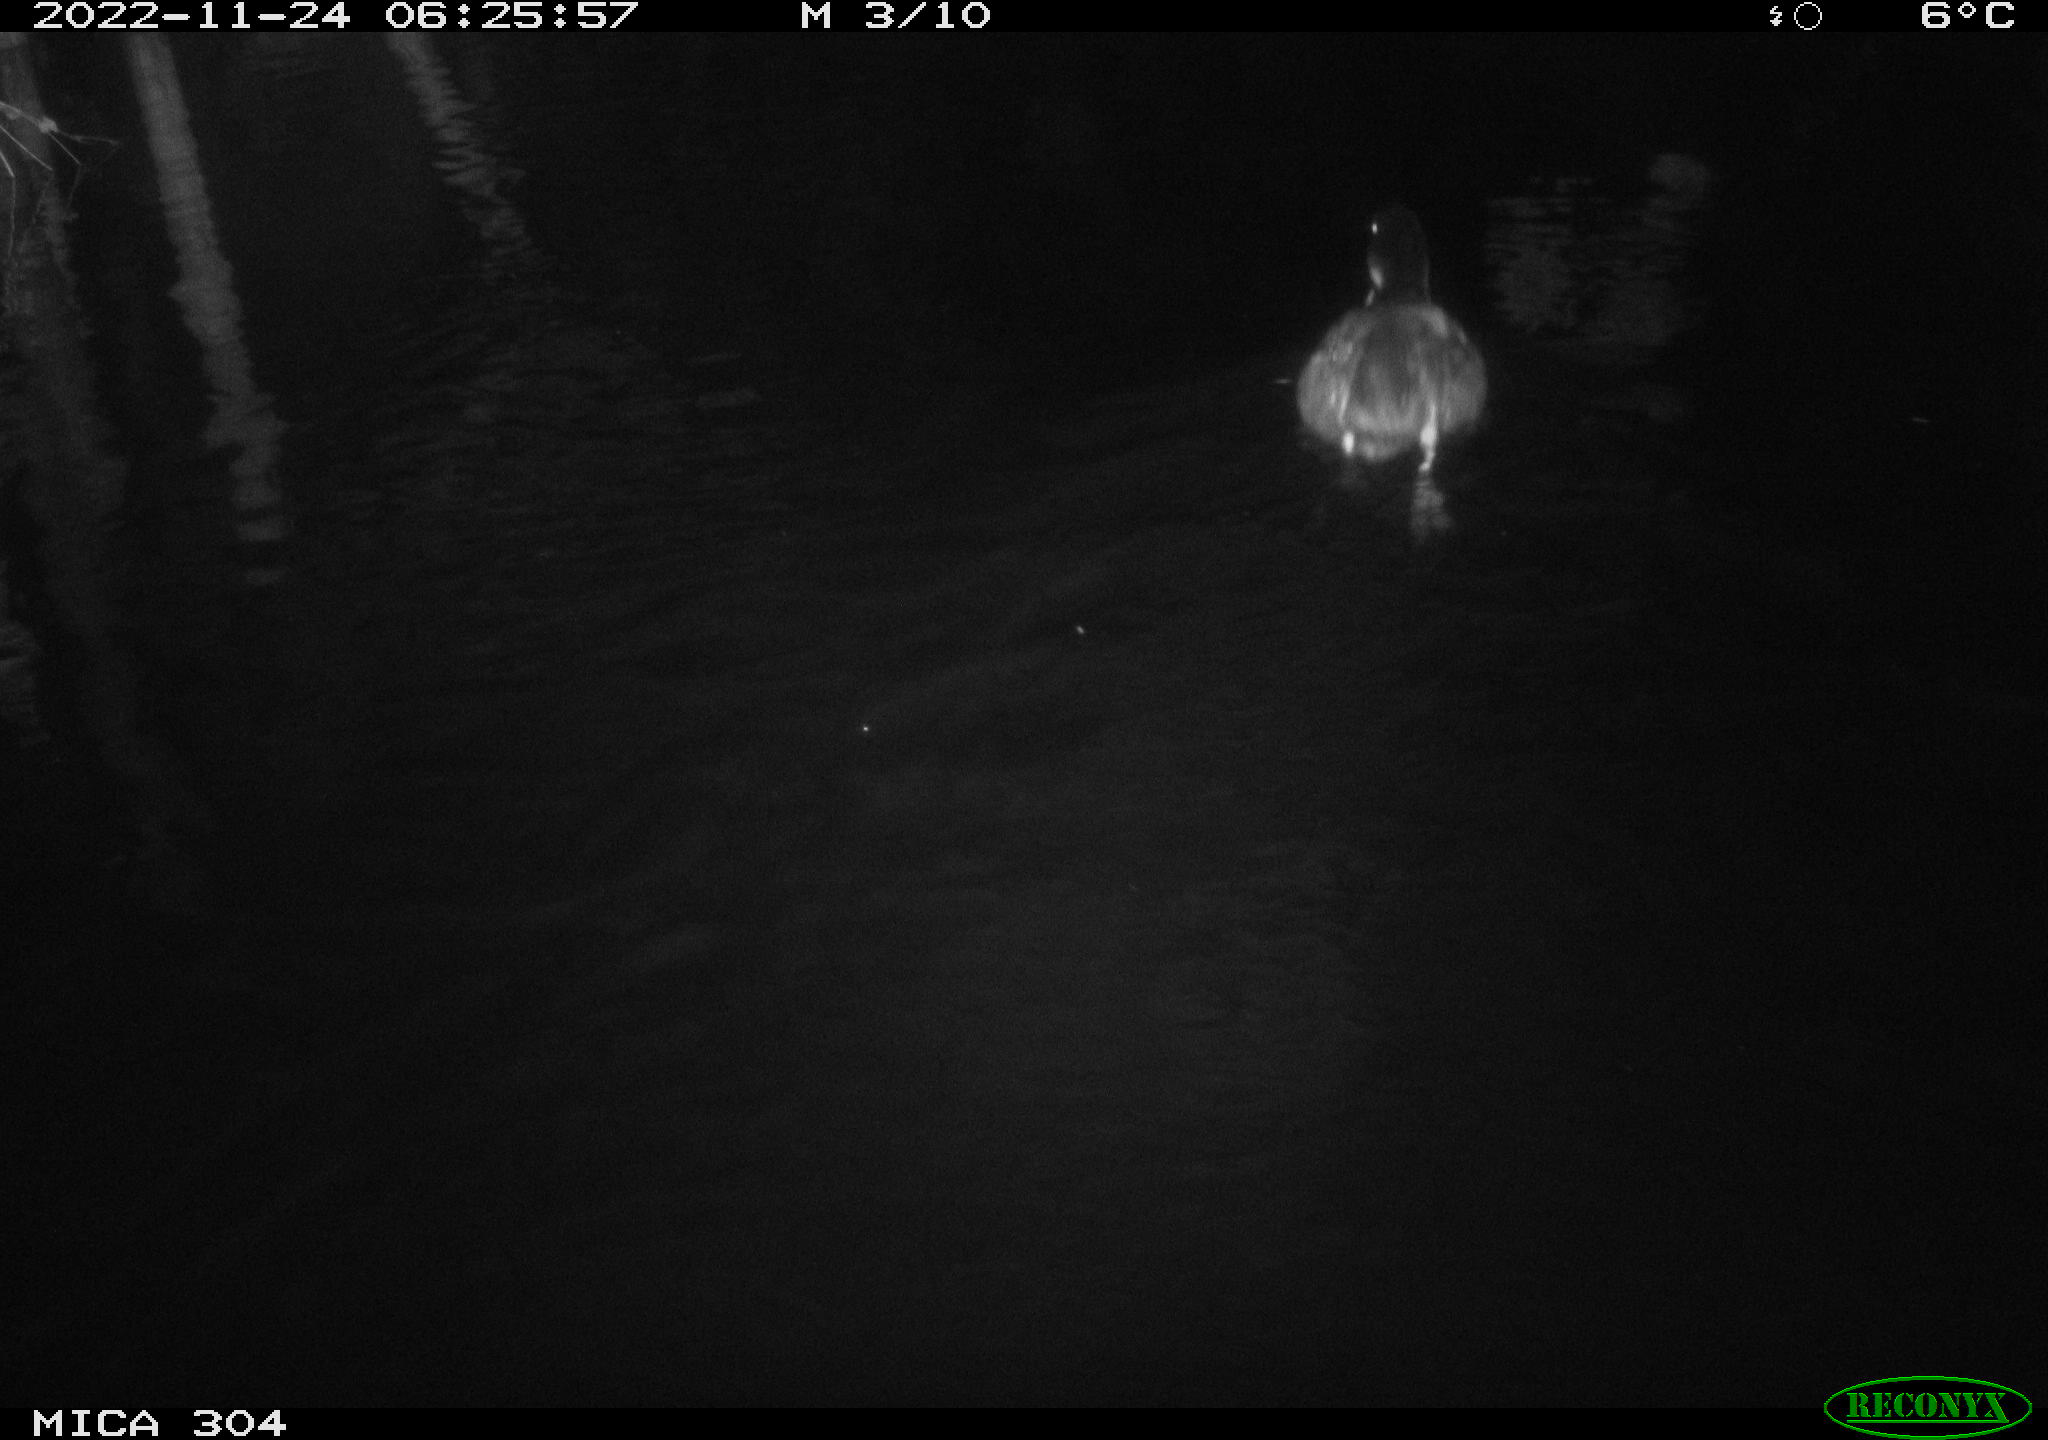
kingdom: Animalia
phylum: Chordata
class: Aves
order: Anseriformes
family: Anatidae
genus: Anas
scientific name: Anas
